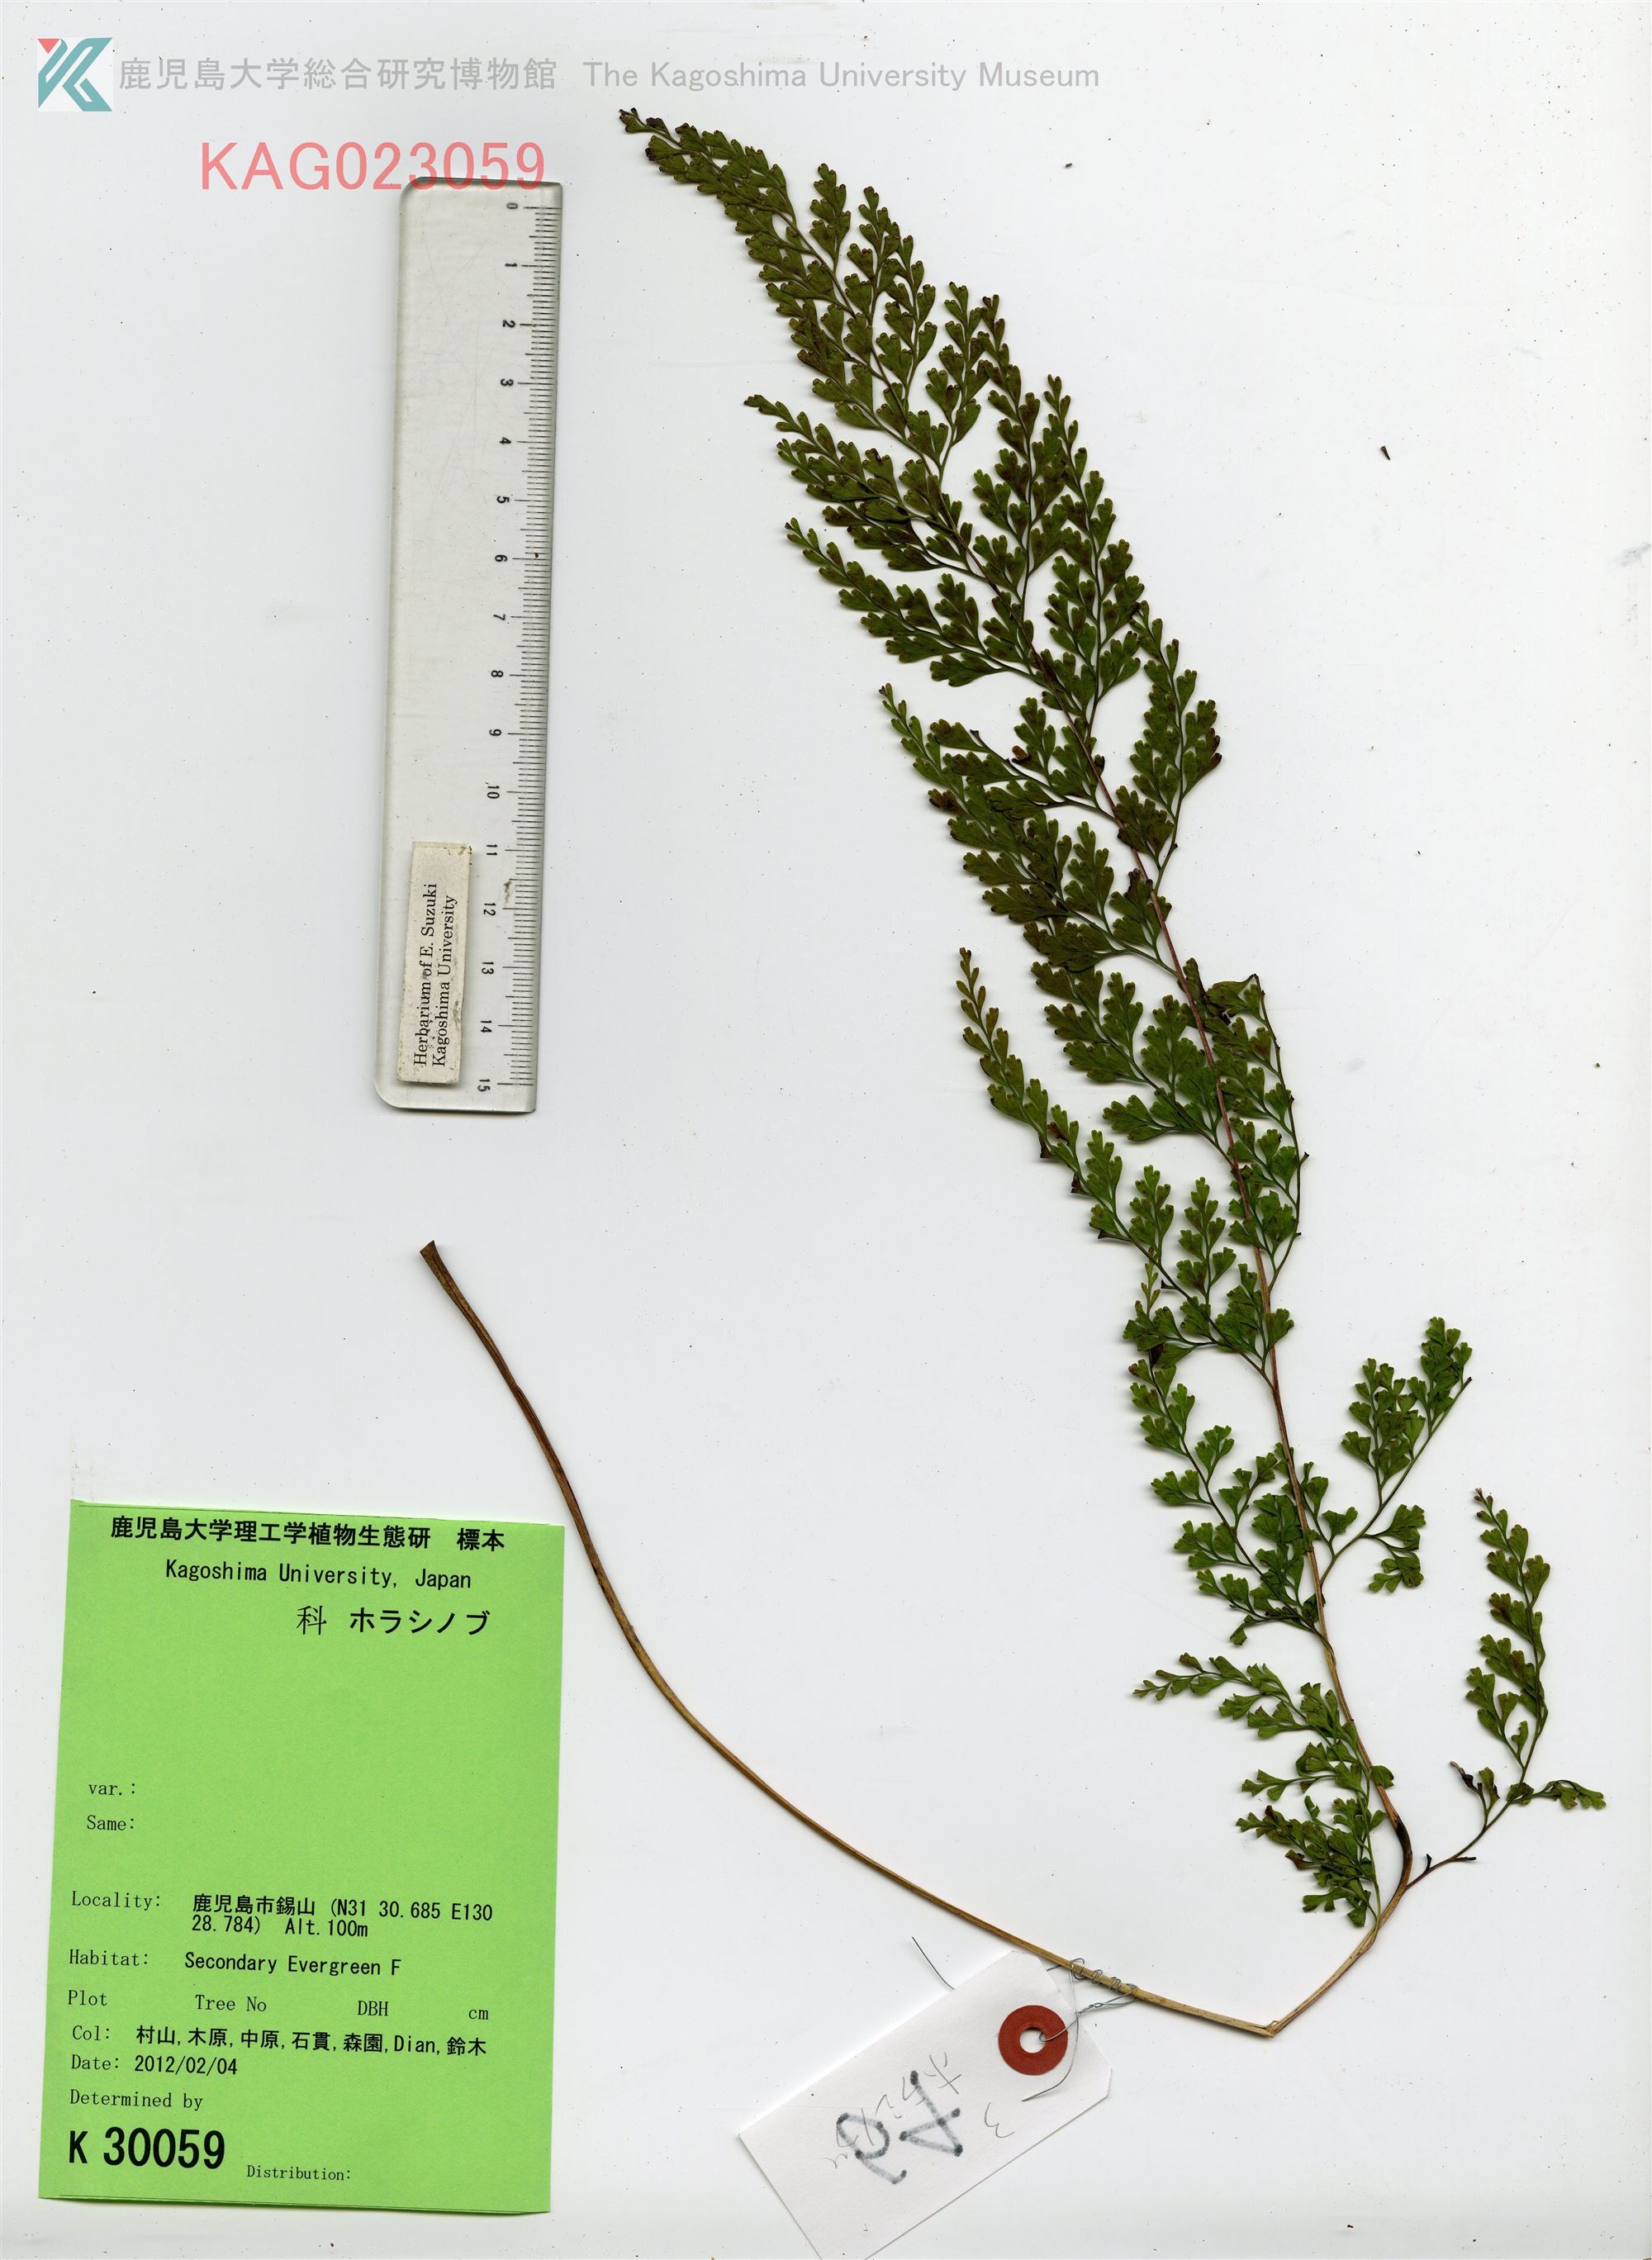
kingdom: Plantae
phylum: Tracheophyta
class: Polypodiopsida
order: Polypodiales
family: Lindsaeaceae
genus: Odontosoria
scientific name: Odontosoria chinensis
